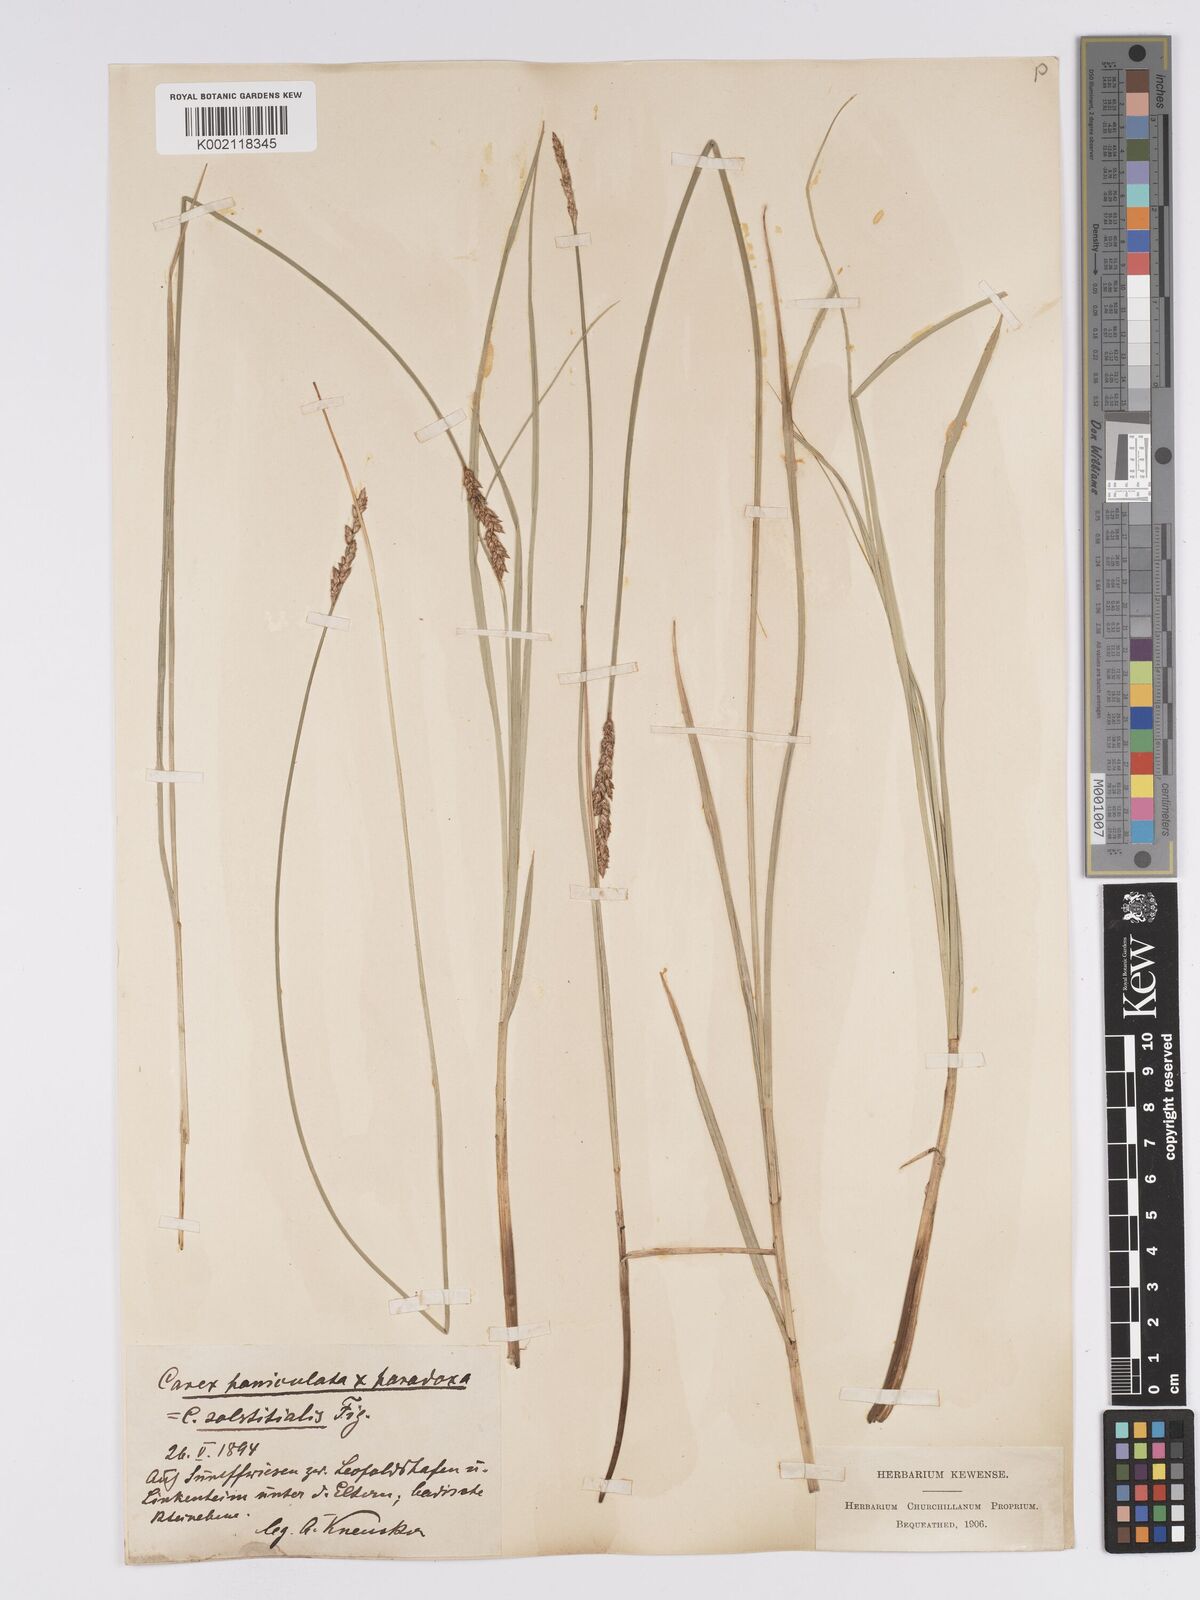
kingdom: Plantae
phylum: Tracheophyta
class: Liliopsida
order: Poales
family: Cyperaceae
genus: Carex
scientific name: Carex paniculata
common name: Greater tussock-sedge
